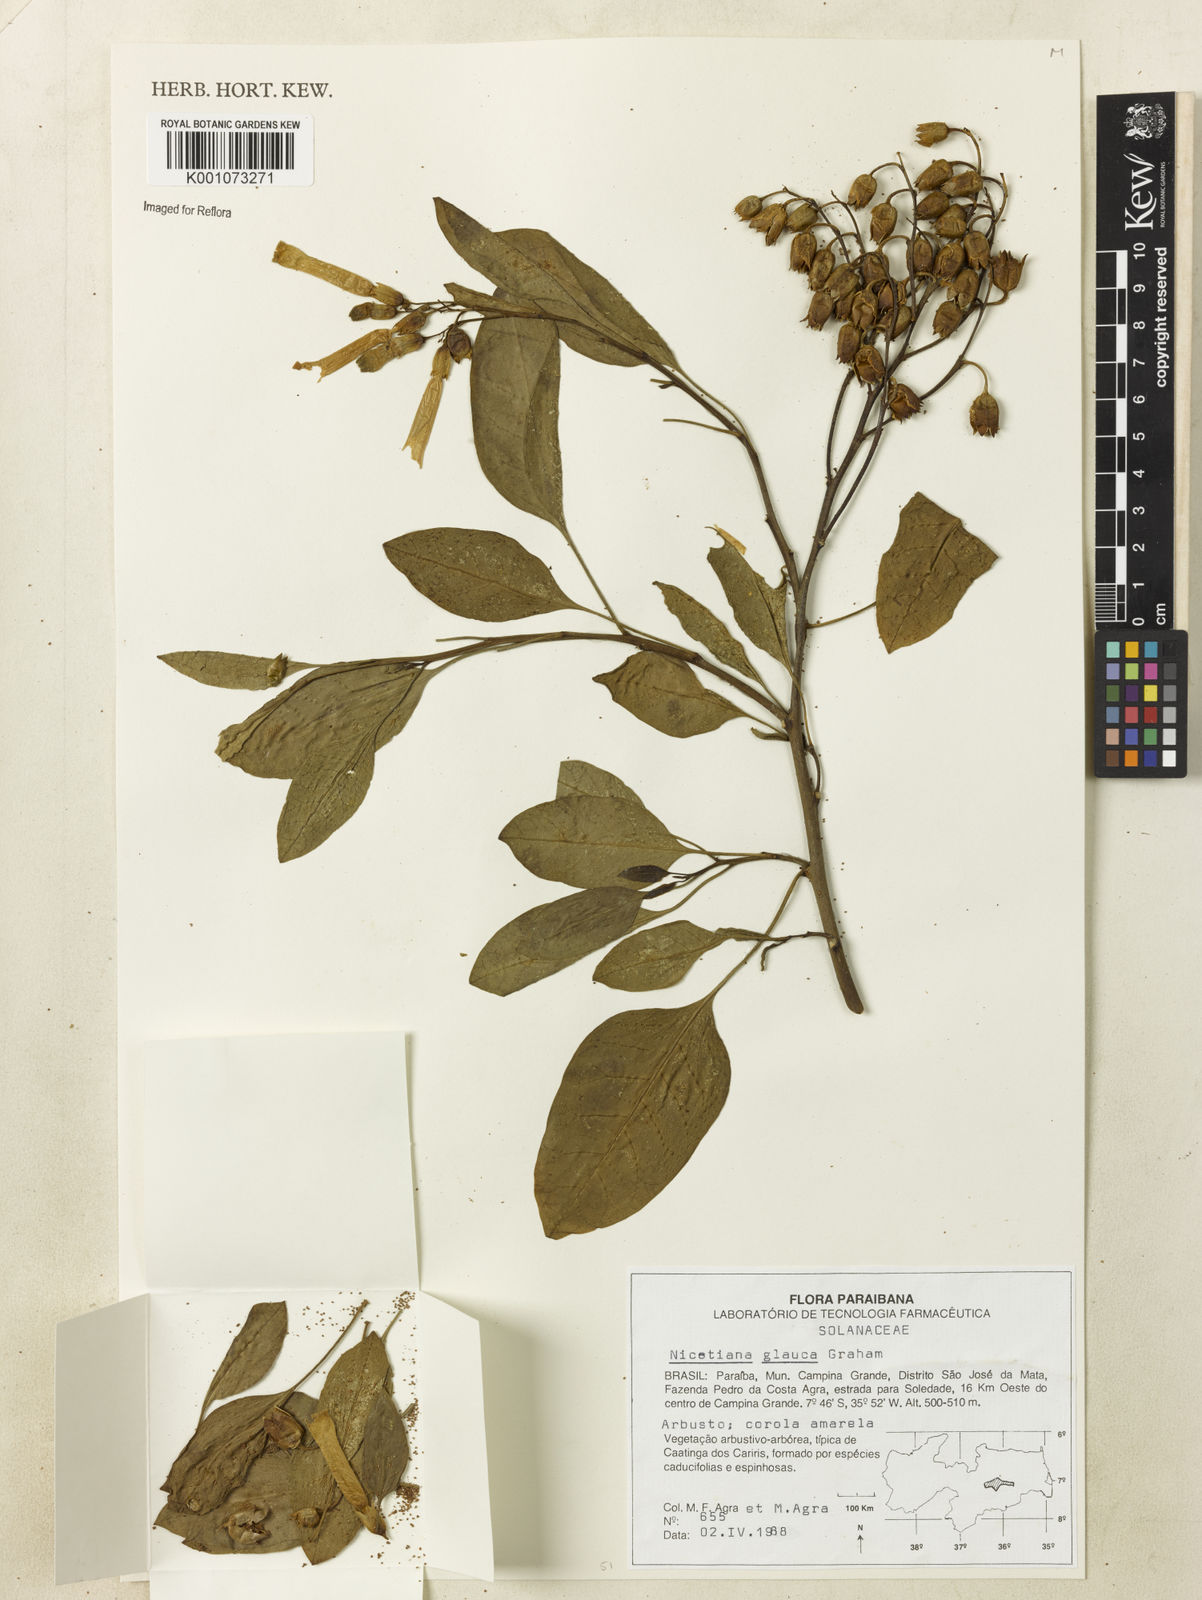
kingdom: Plantae
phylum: Tracheophyta
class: Magnoliopsida
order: Solanales
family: Solanaceae
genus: Nicotiana
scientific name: Nicotiana glauca
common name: Tree tobacco
